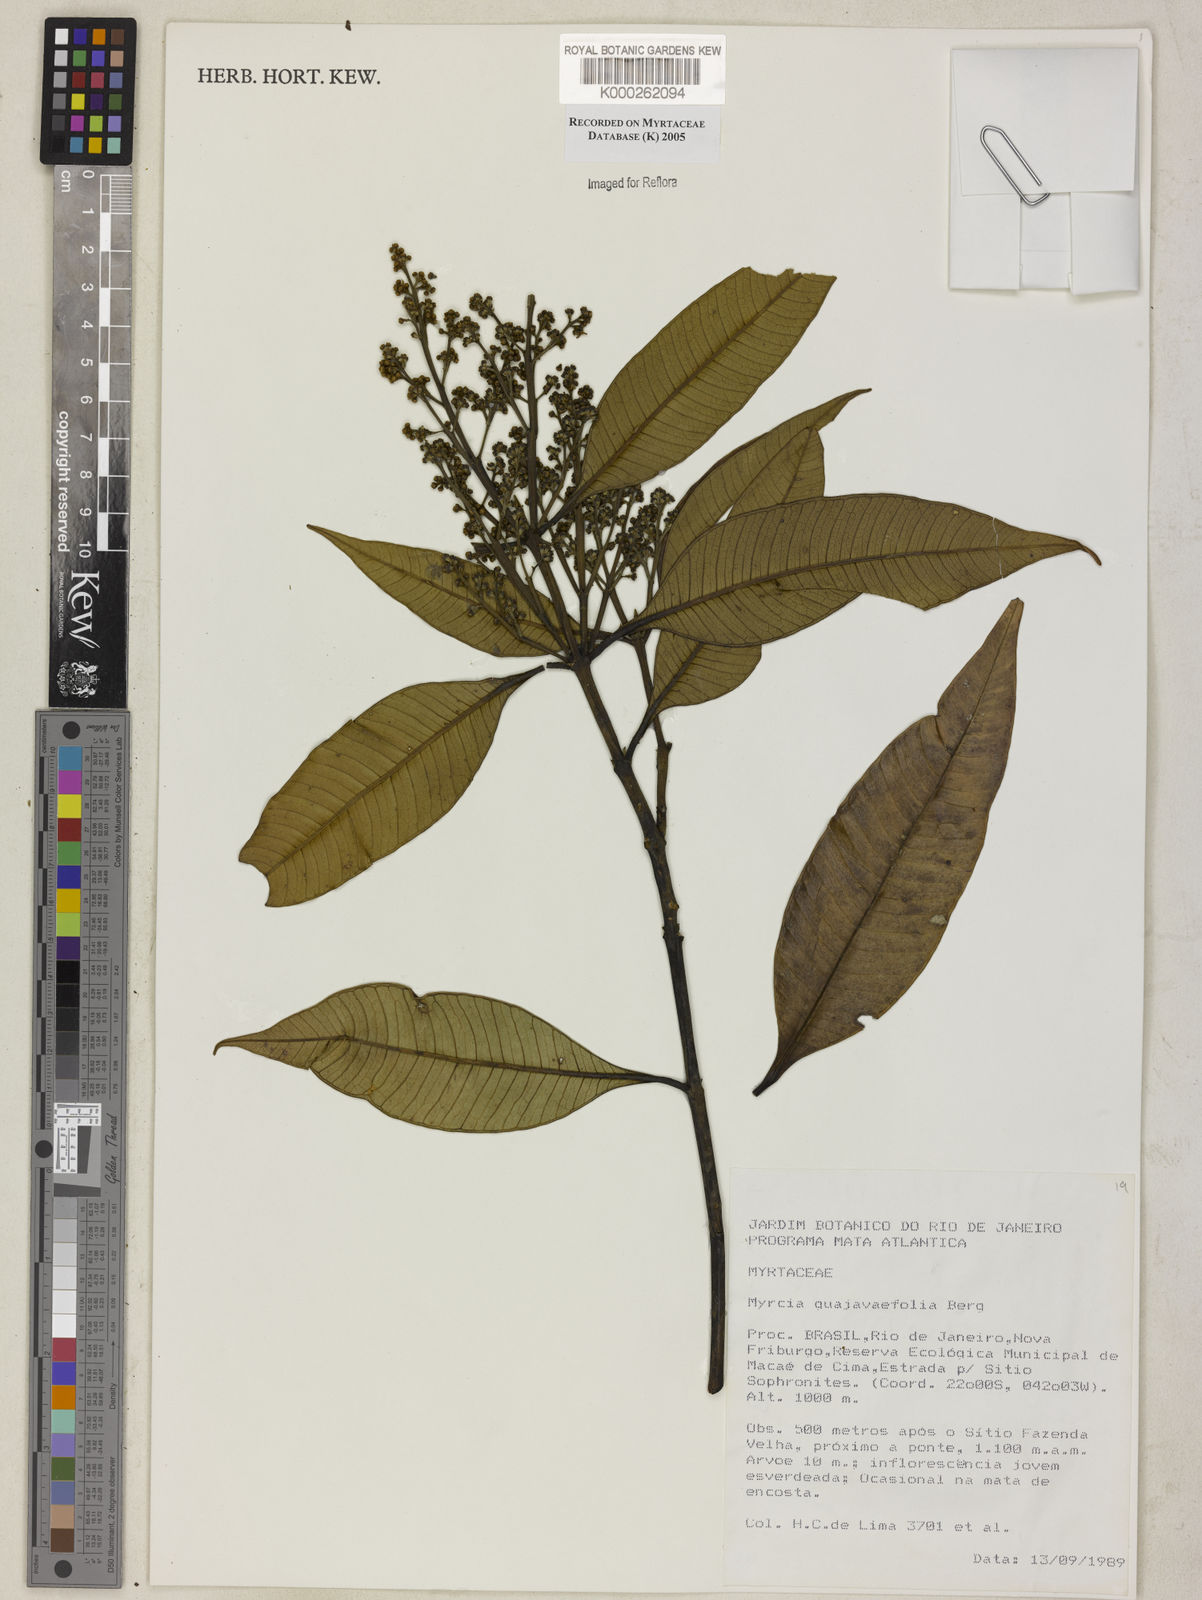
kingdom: Plantae
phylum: Tracheophyta
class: Magnoliopsida
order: Myrtales
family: Myrtaceae
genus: Myrcia
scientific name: Myrcia splendens
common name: Surinam cherry
